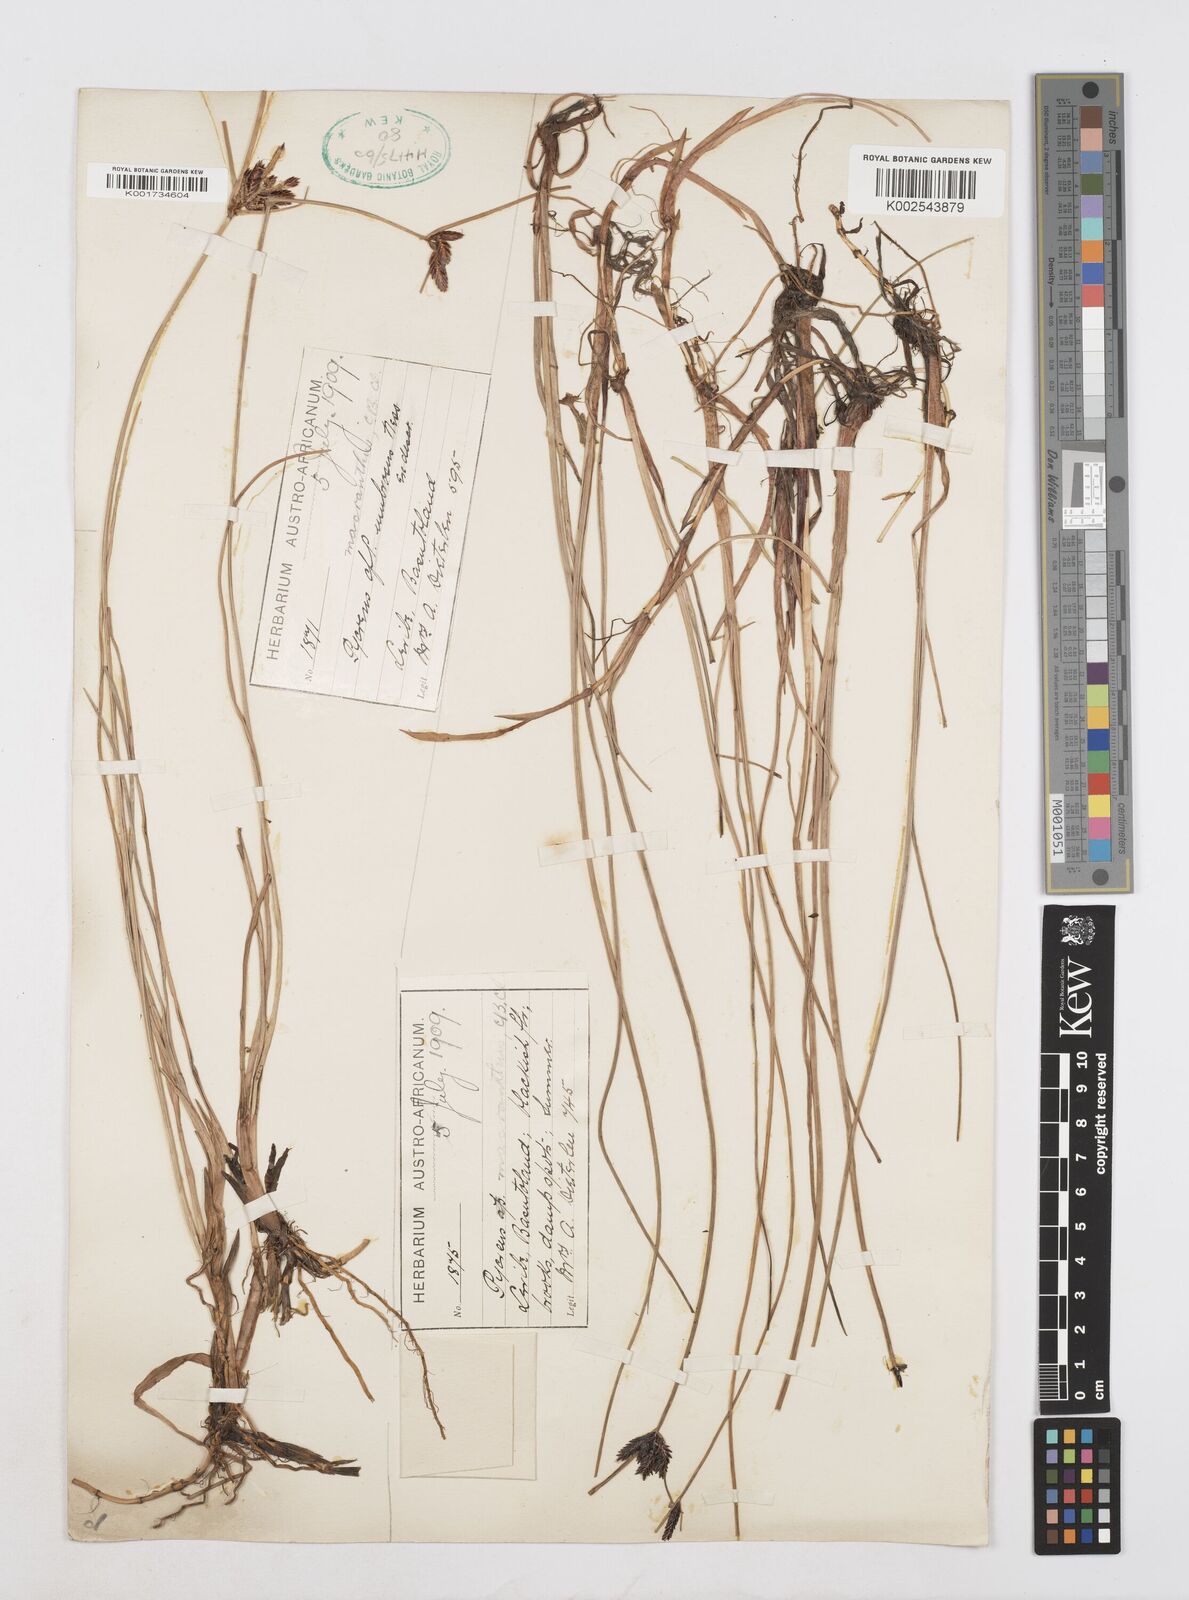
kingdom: Plantae
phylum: Tracheophyta
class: Liliopsida
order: Poales
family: Cyperaceae
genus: Cyperus
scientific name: Cyperus nigricans
